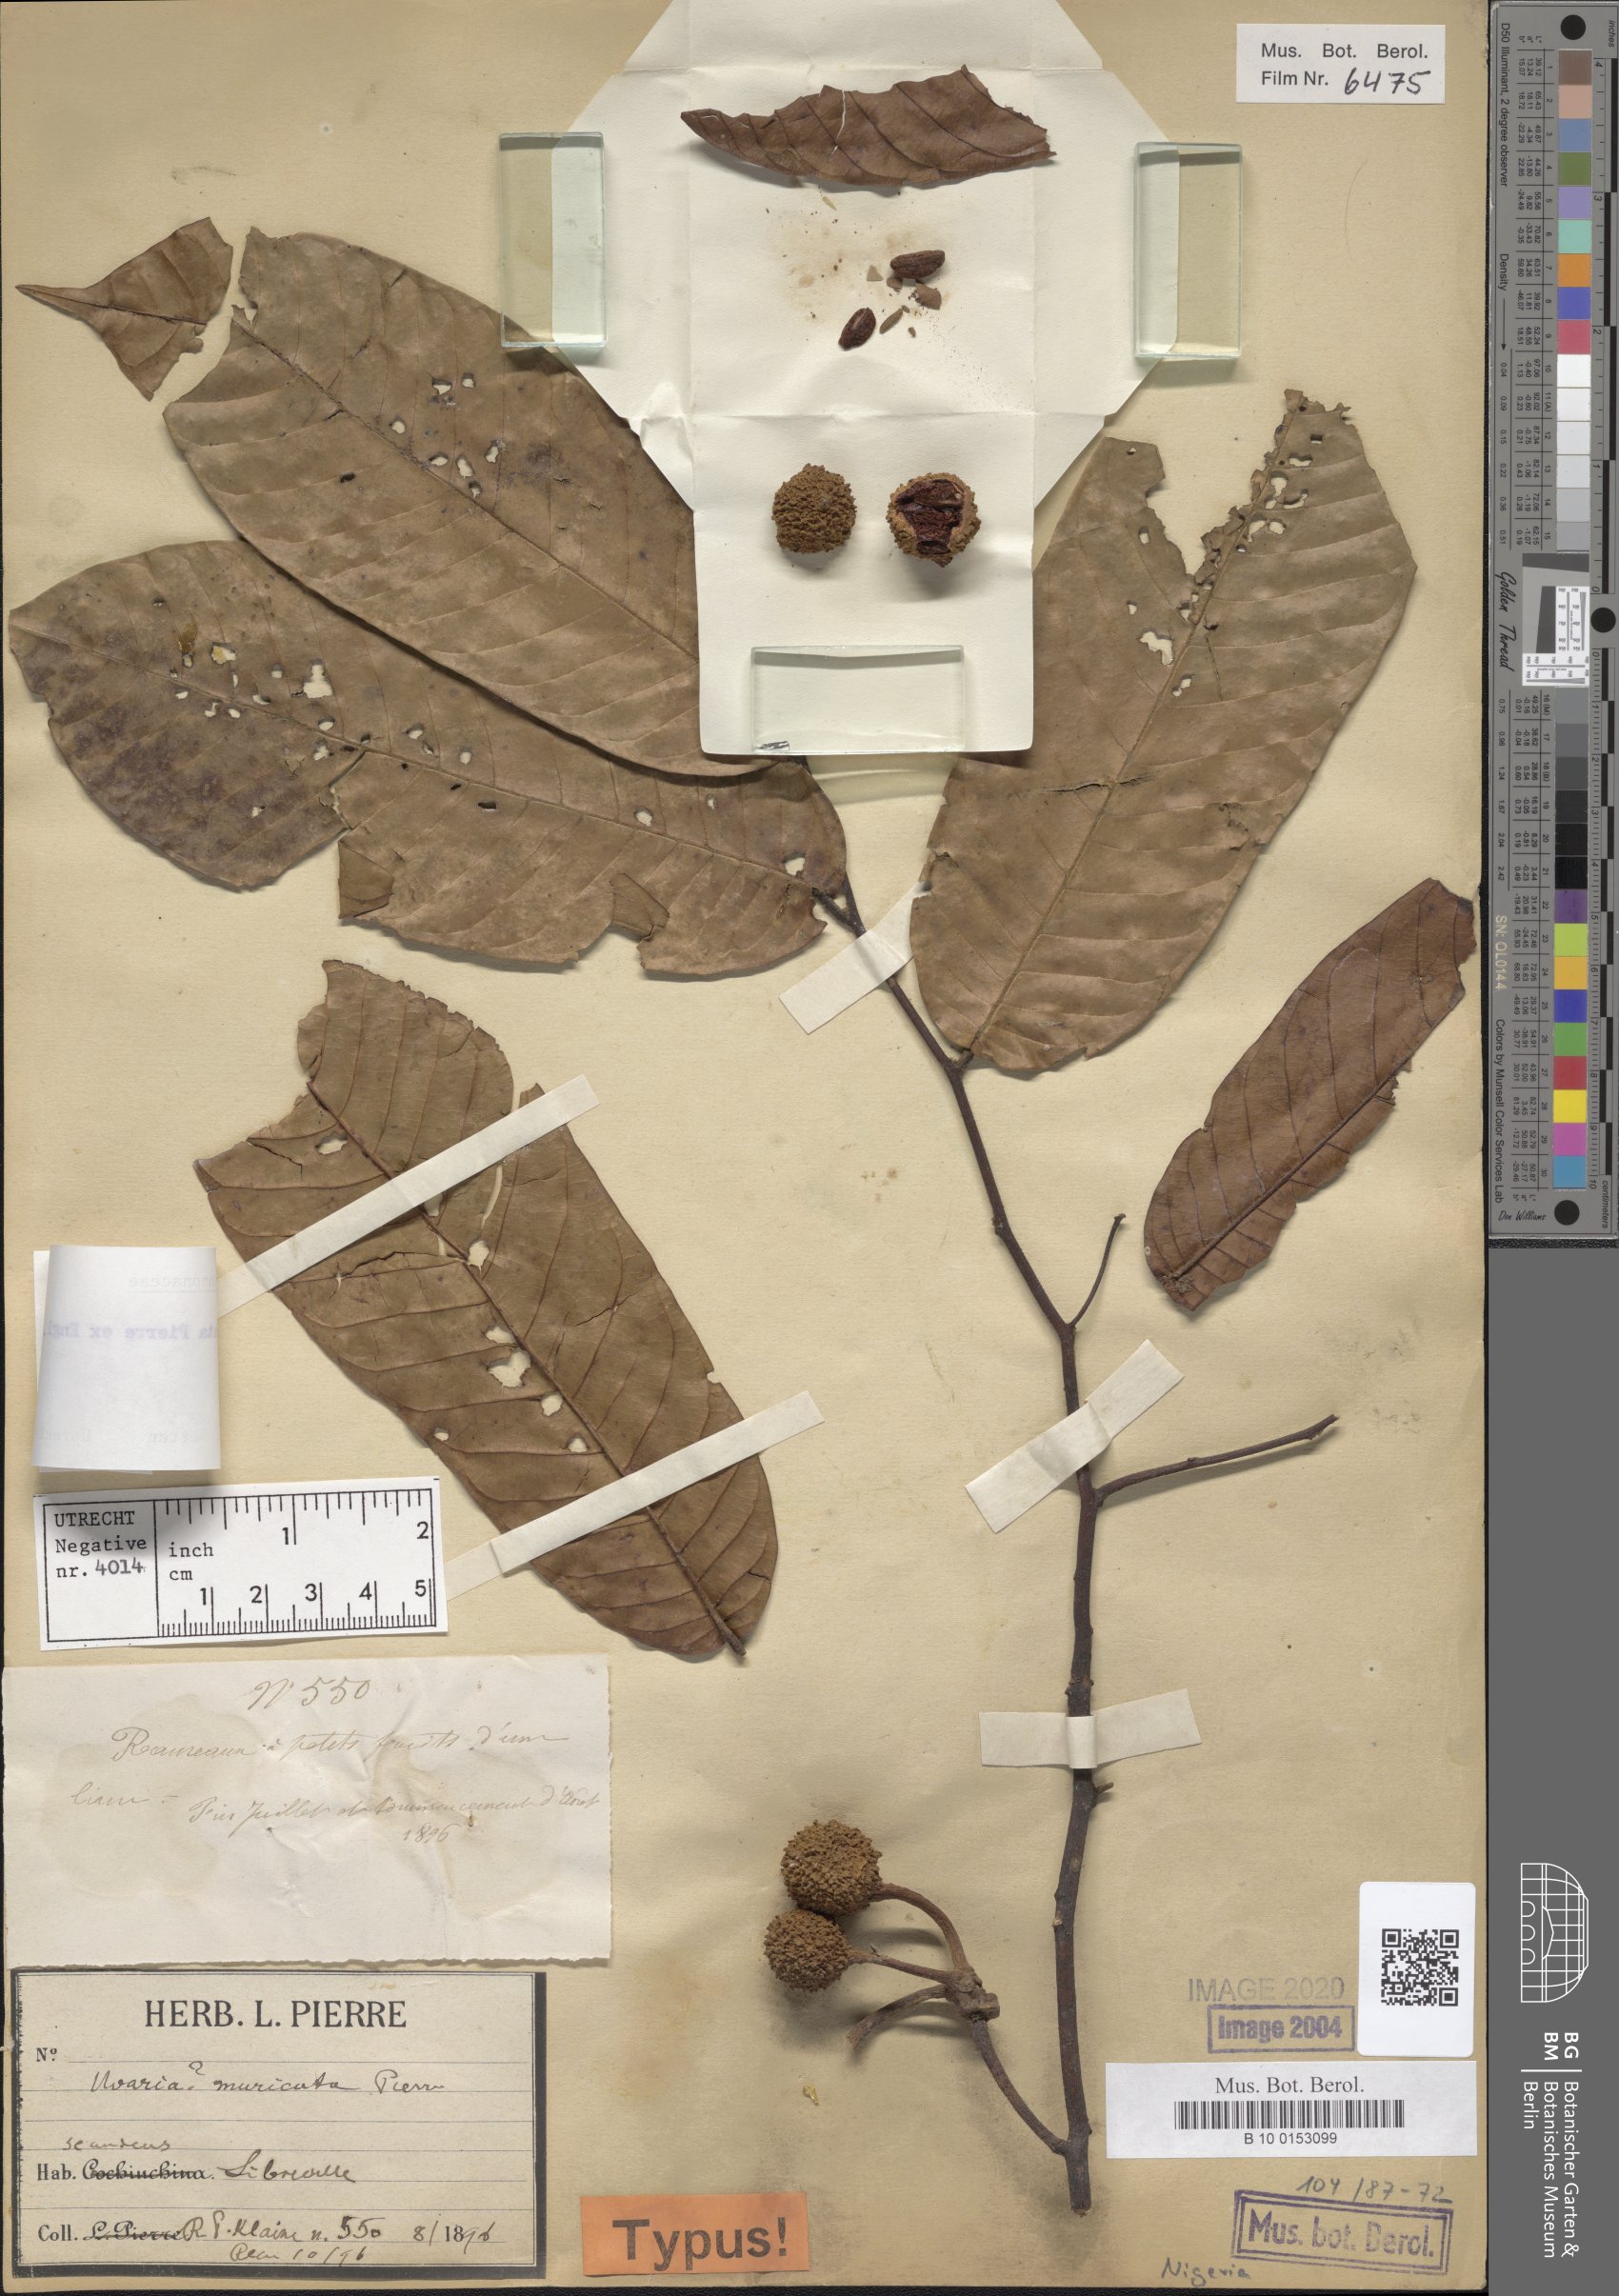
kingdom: Plantae
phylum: Tracheophyta
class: Magnoliopsida
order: Magnoliales
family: Annonaceae
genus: Uvaria
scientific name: Uvaria muricata
